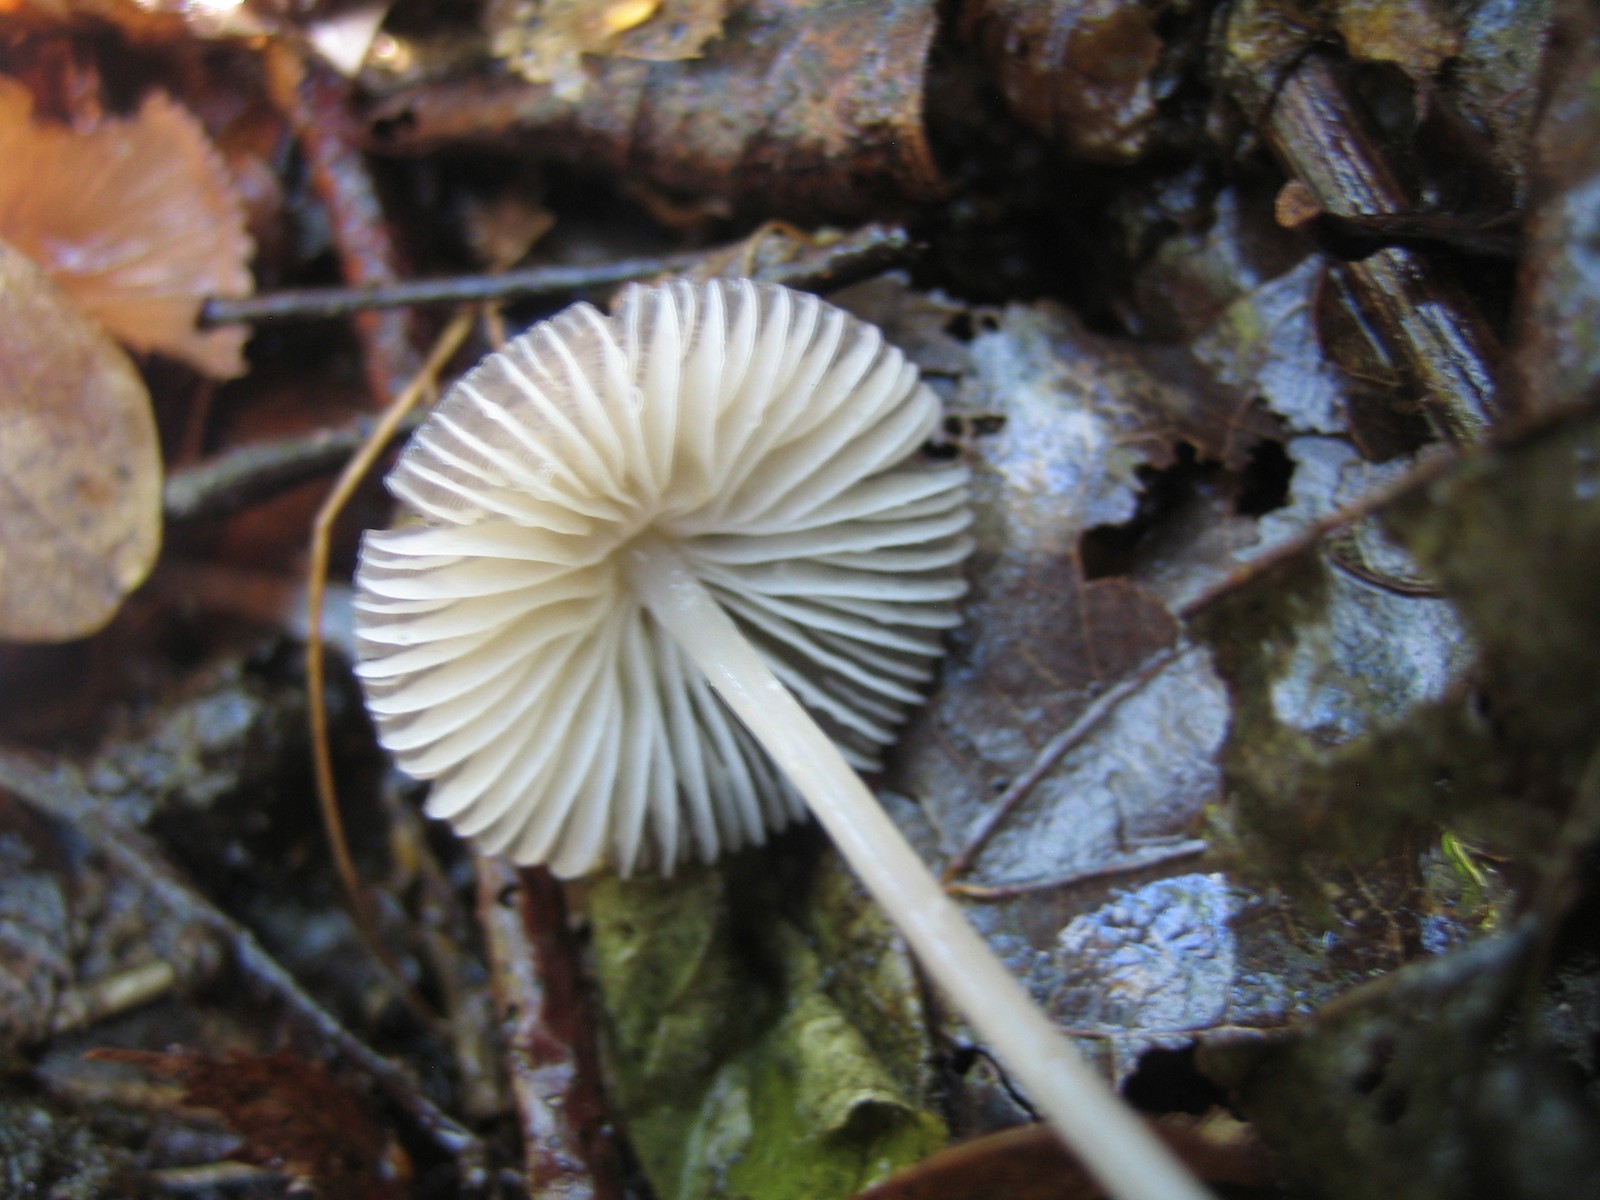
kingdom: Fungi
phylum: Basidiomycota
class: Agaricomycetes
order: Agaricales
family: Mycenaceae
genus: Mycena
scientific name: Mycena
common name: huesvamp
